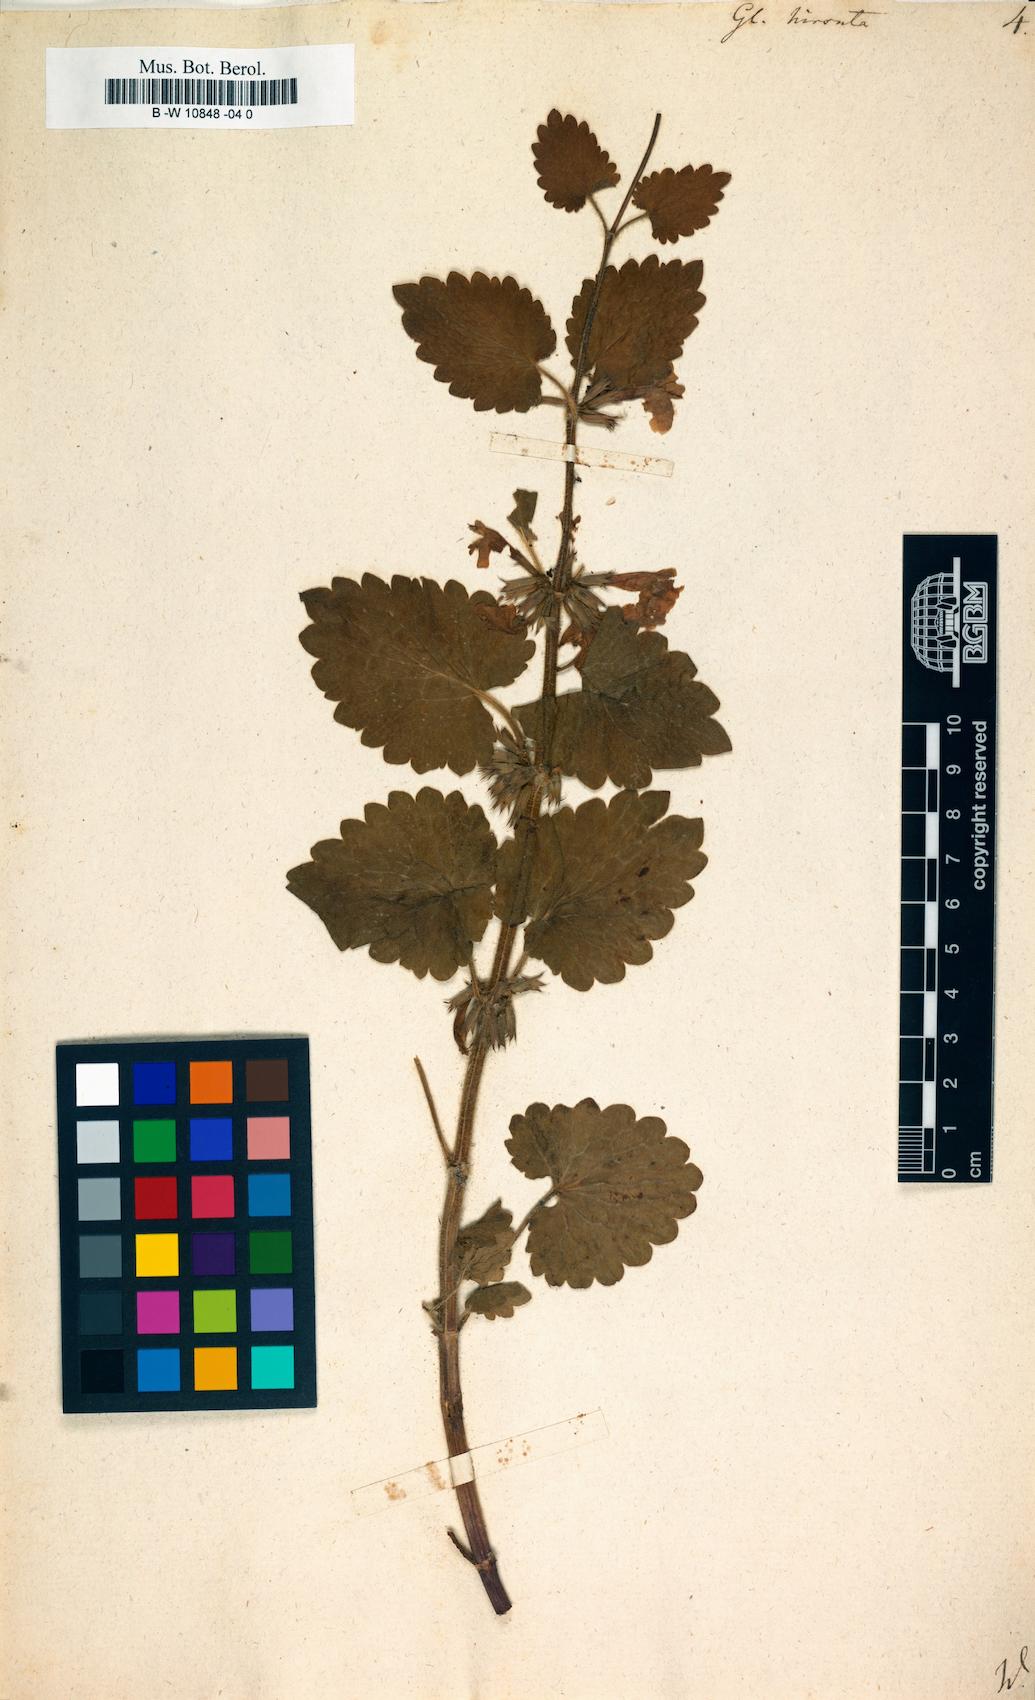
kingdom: Plantae
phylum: Tracheophyta
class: Magnoliopsida
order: Lamiales
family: Lamiaceae
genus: Glechoma
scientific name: Glechoma hirsuta
